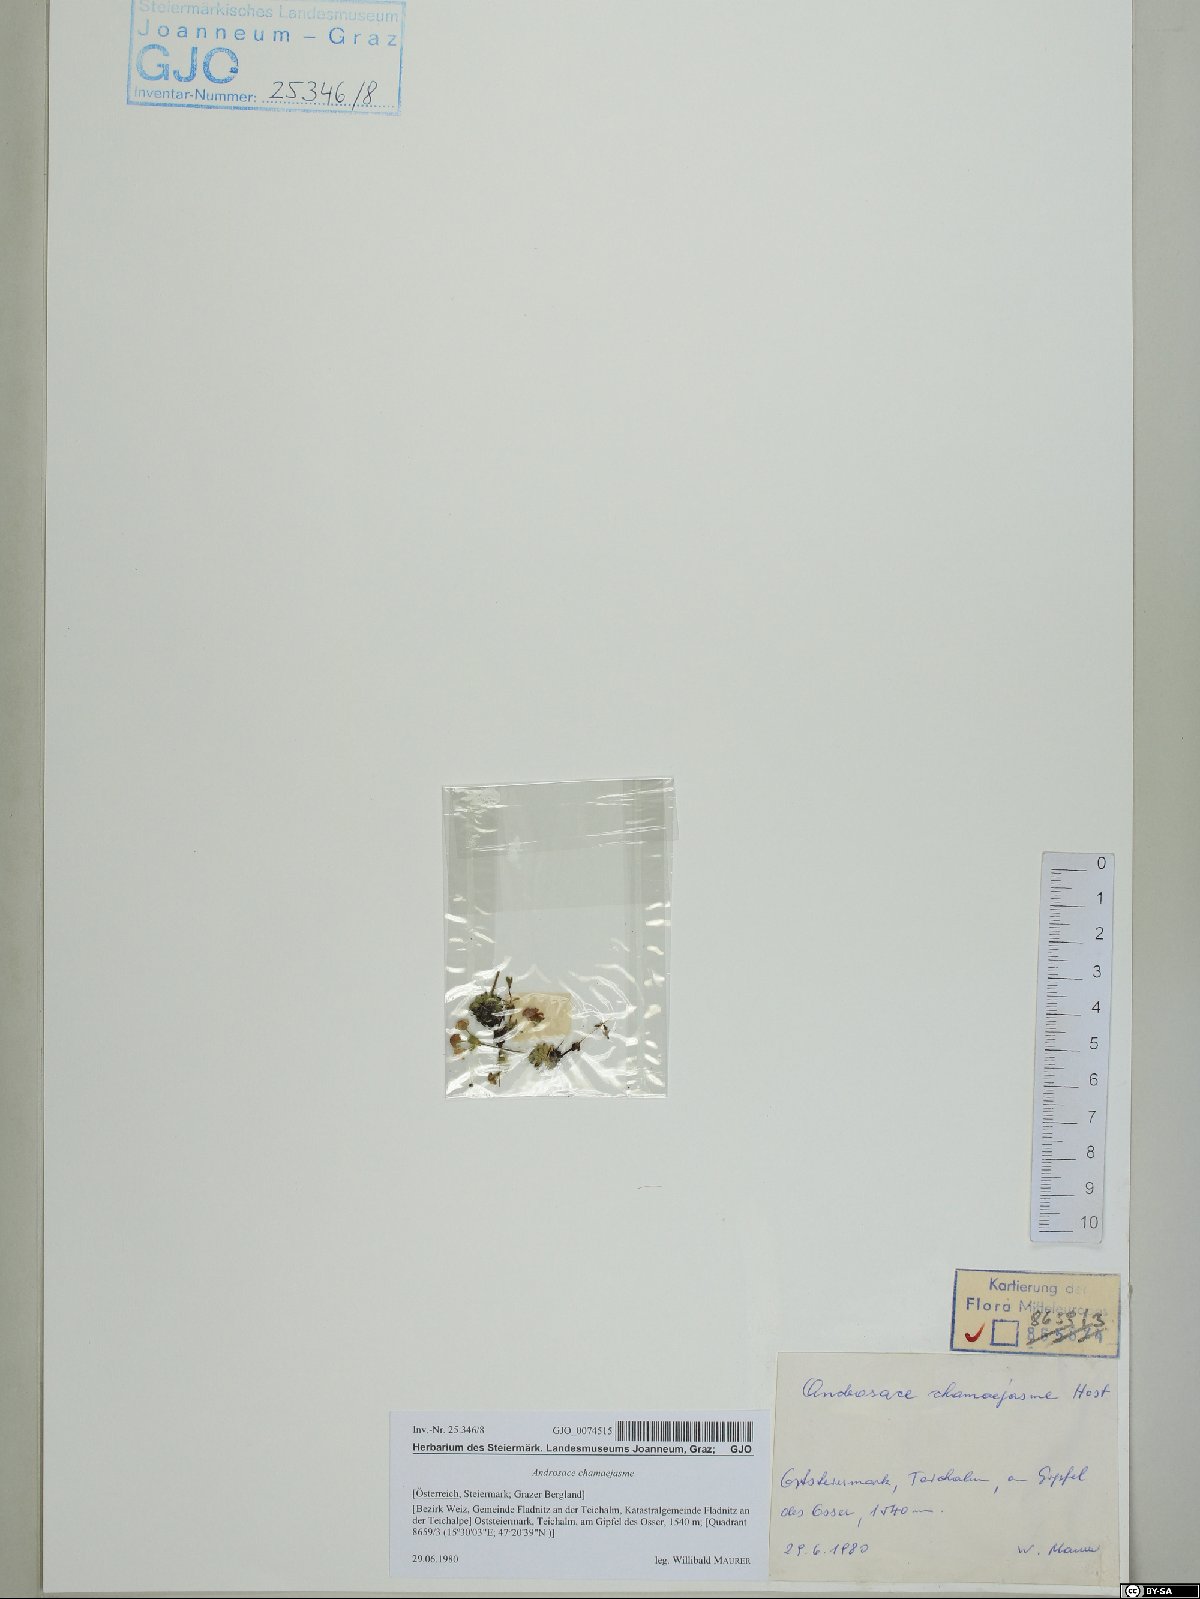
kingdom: Plantae
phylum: Tracheophyta
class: Magnoliopsida
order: Ericales
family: Primulaceae
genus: Androsace
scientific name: Androsace chamaejasme
